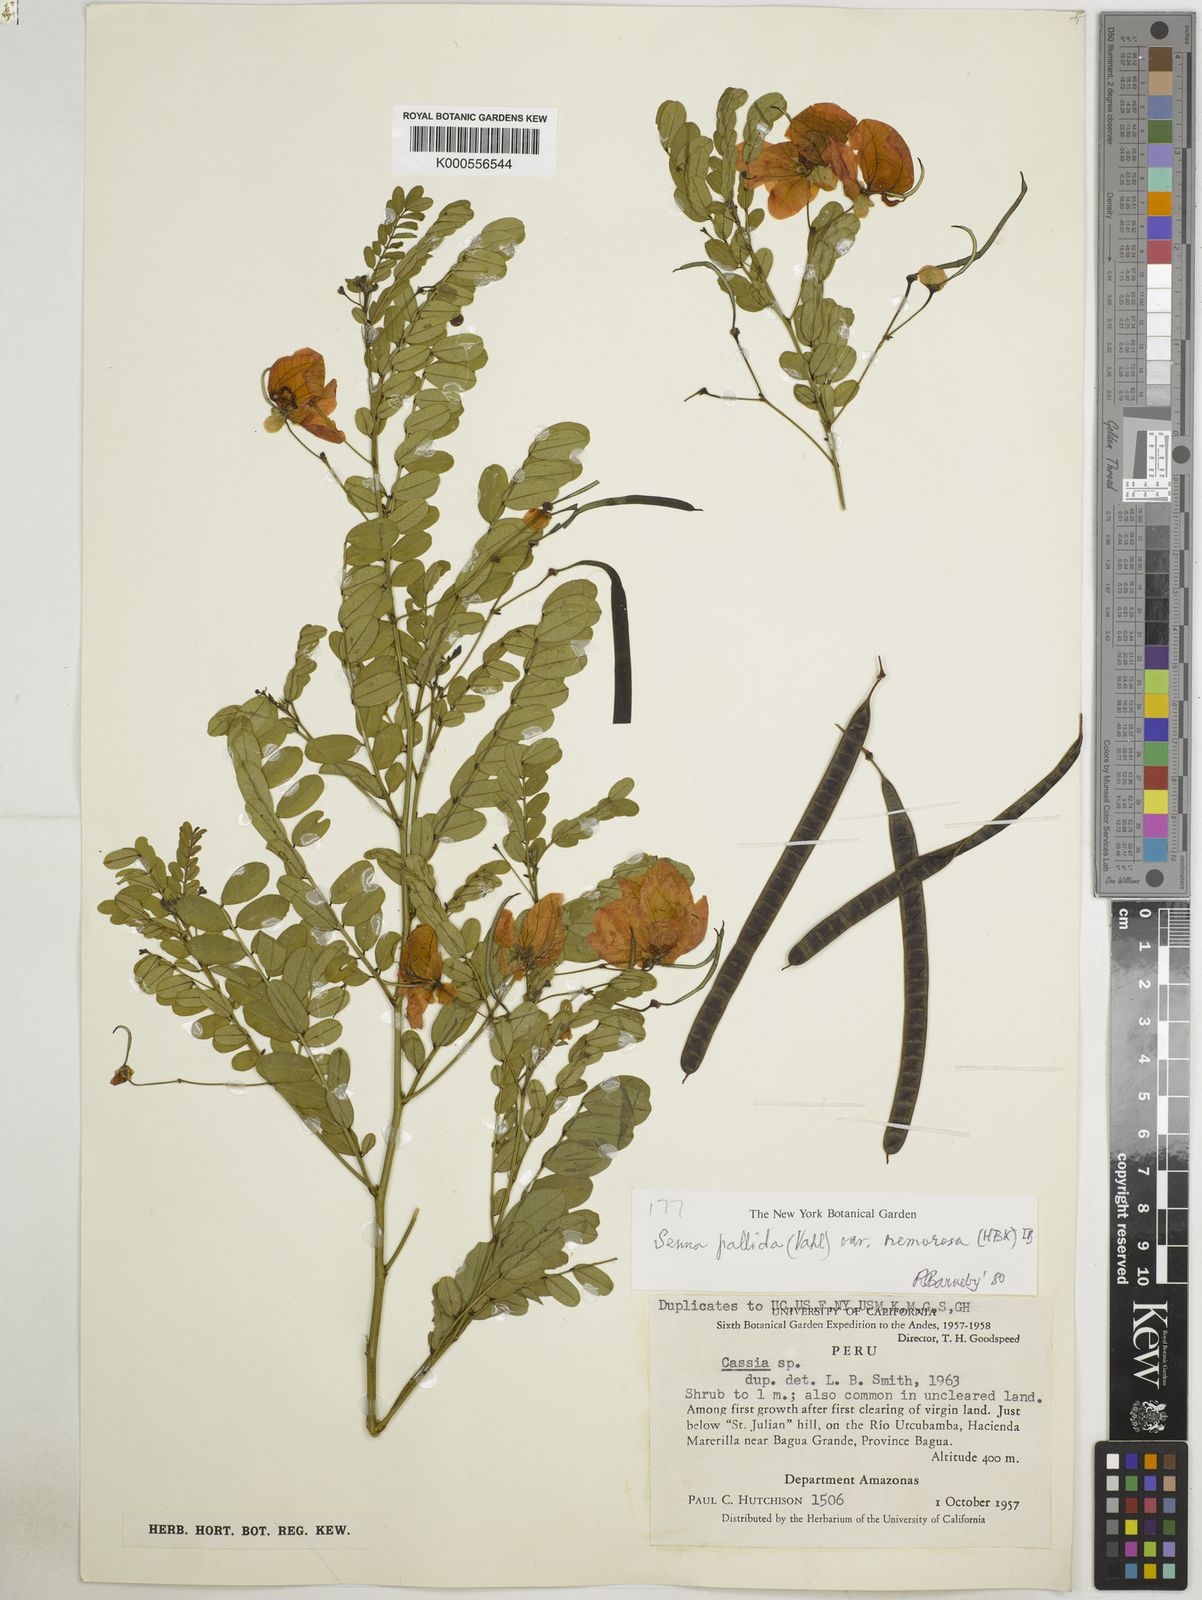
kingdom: Plantae
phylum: Tracheophyta
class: Magnoliopsida
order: Fabales
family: Fabaceae
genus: Senna
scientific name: Senna pallida
